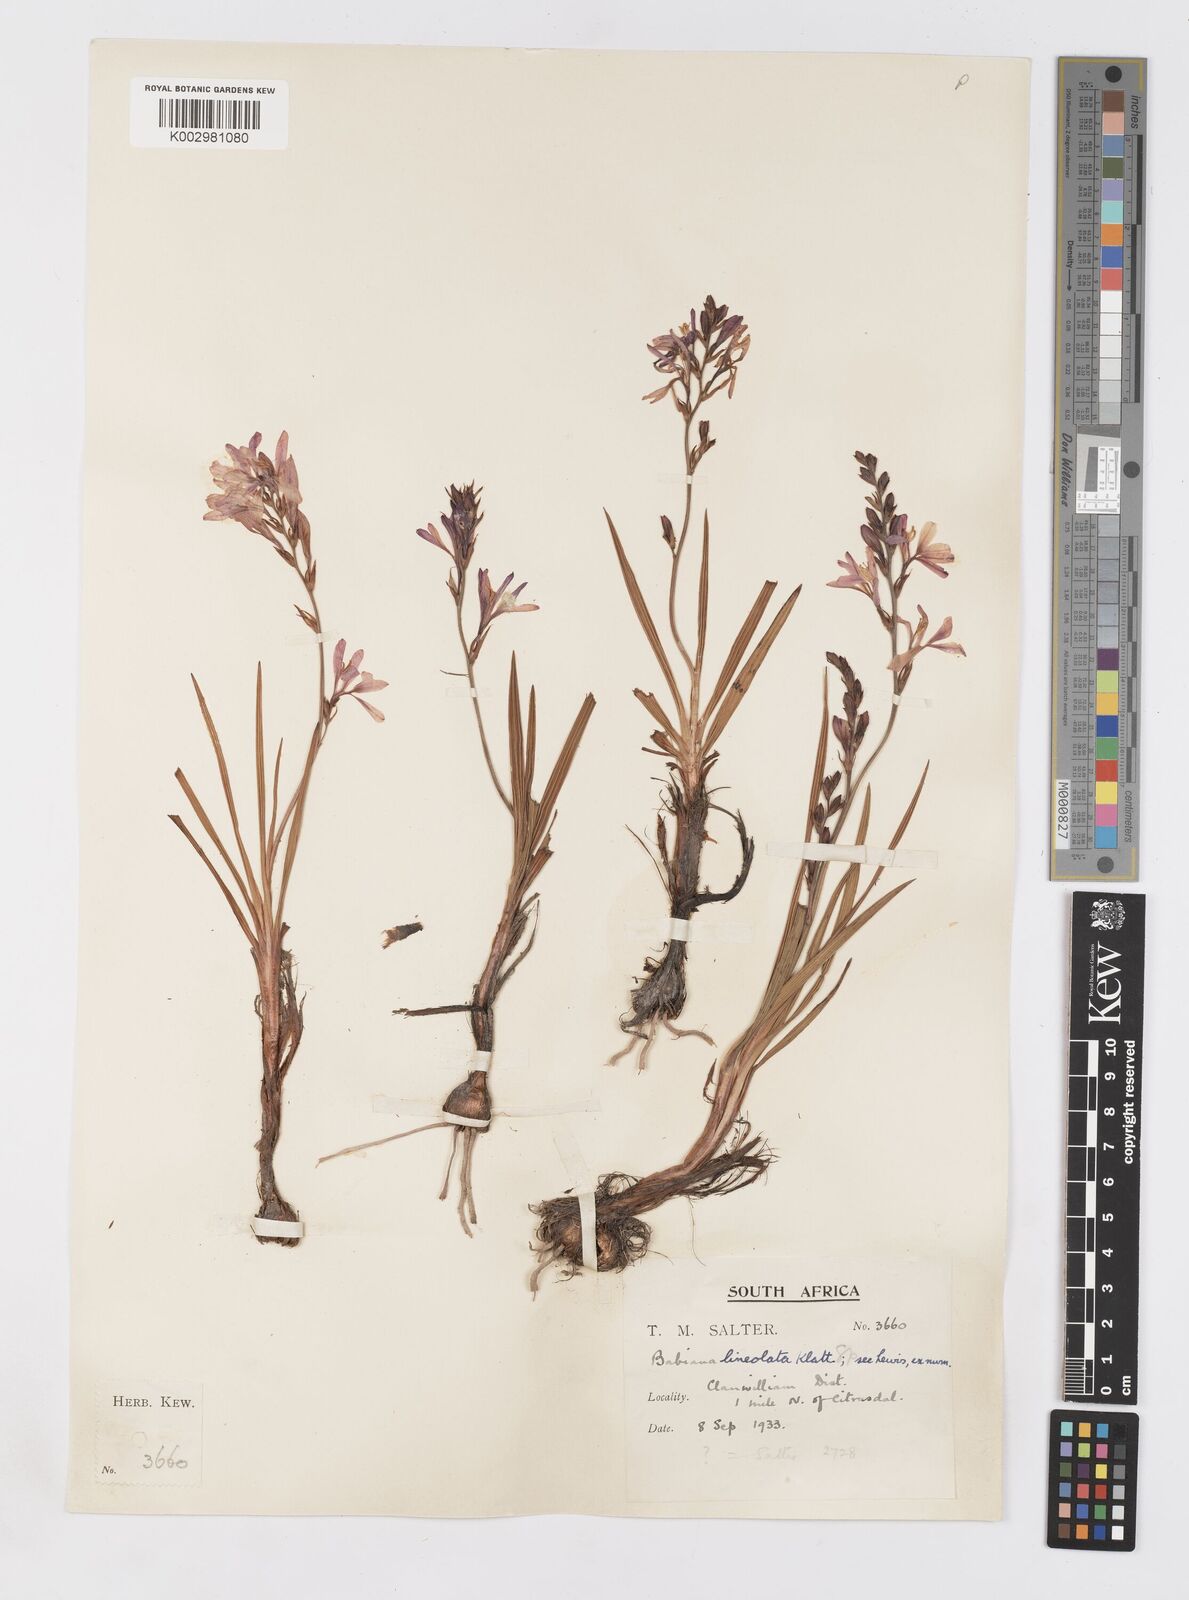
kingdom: Plantae
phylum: Tracheophyta
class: Liliopsida
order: Asparagales
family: Iridaceae
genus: Babiana
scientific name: Babiana lineolata
